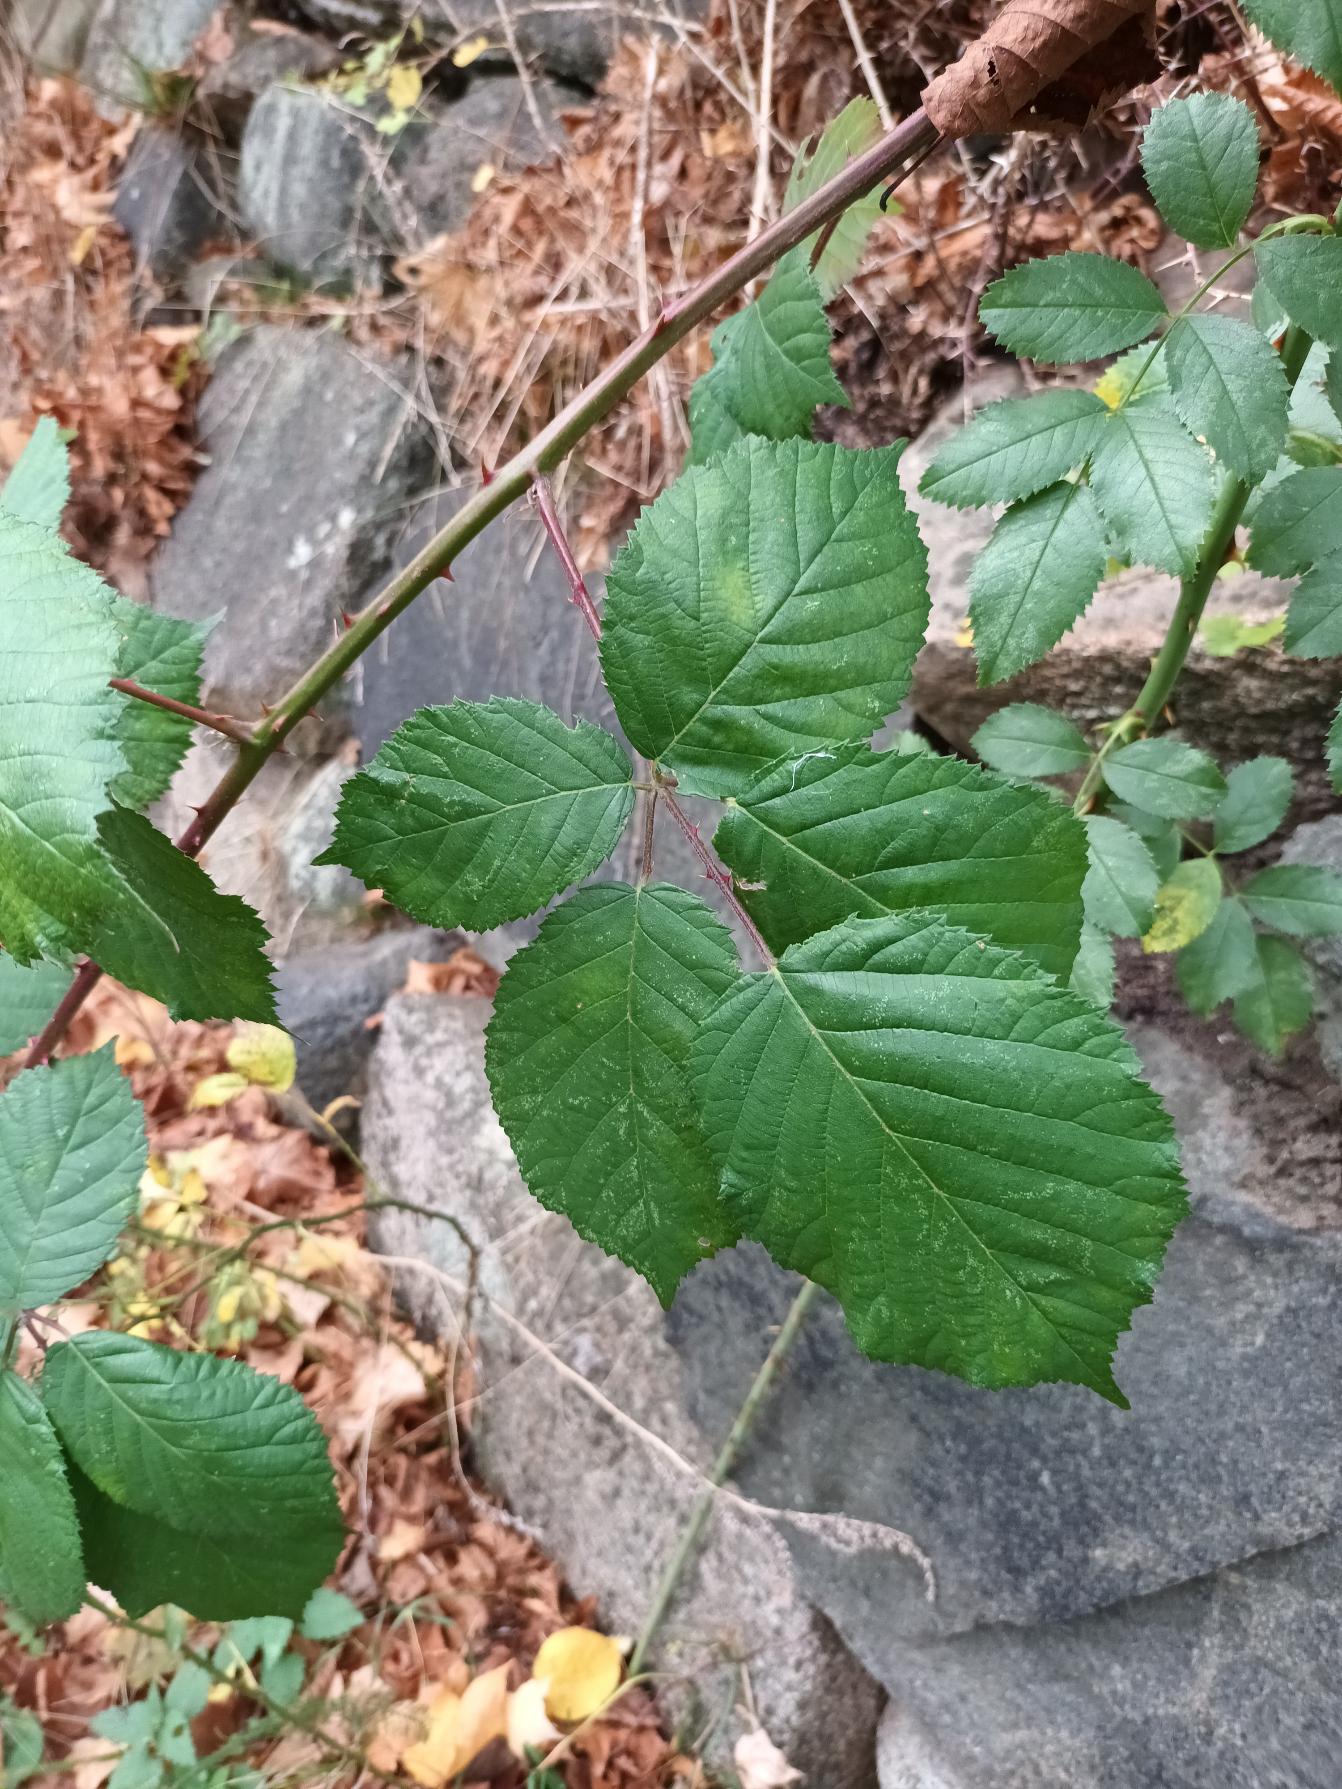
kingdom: Plantae
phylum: Tracheophyta
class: Magnoliopsida
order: Rosales
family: Rosaceae
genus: Rubus
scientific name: Rubus armeniacus
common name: Armensk brombær
